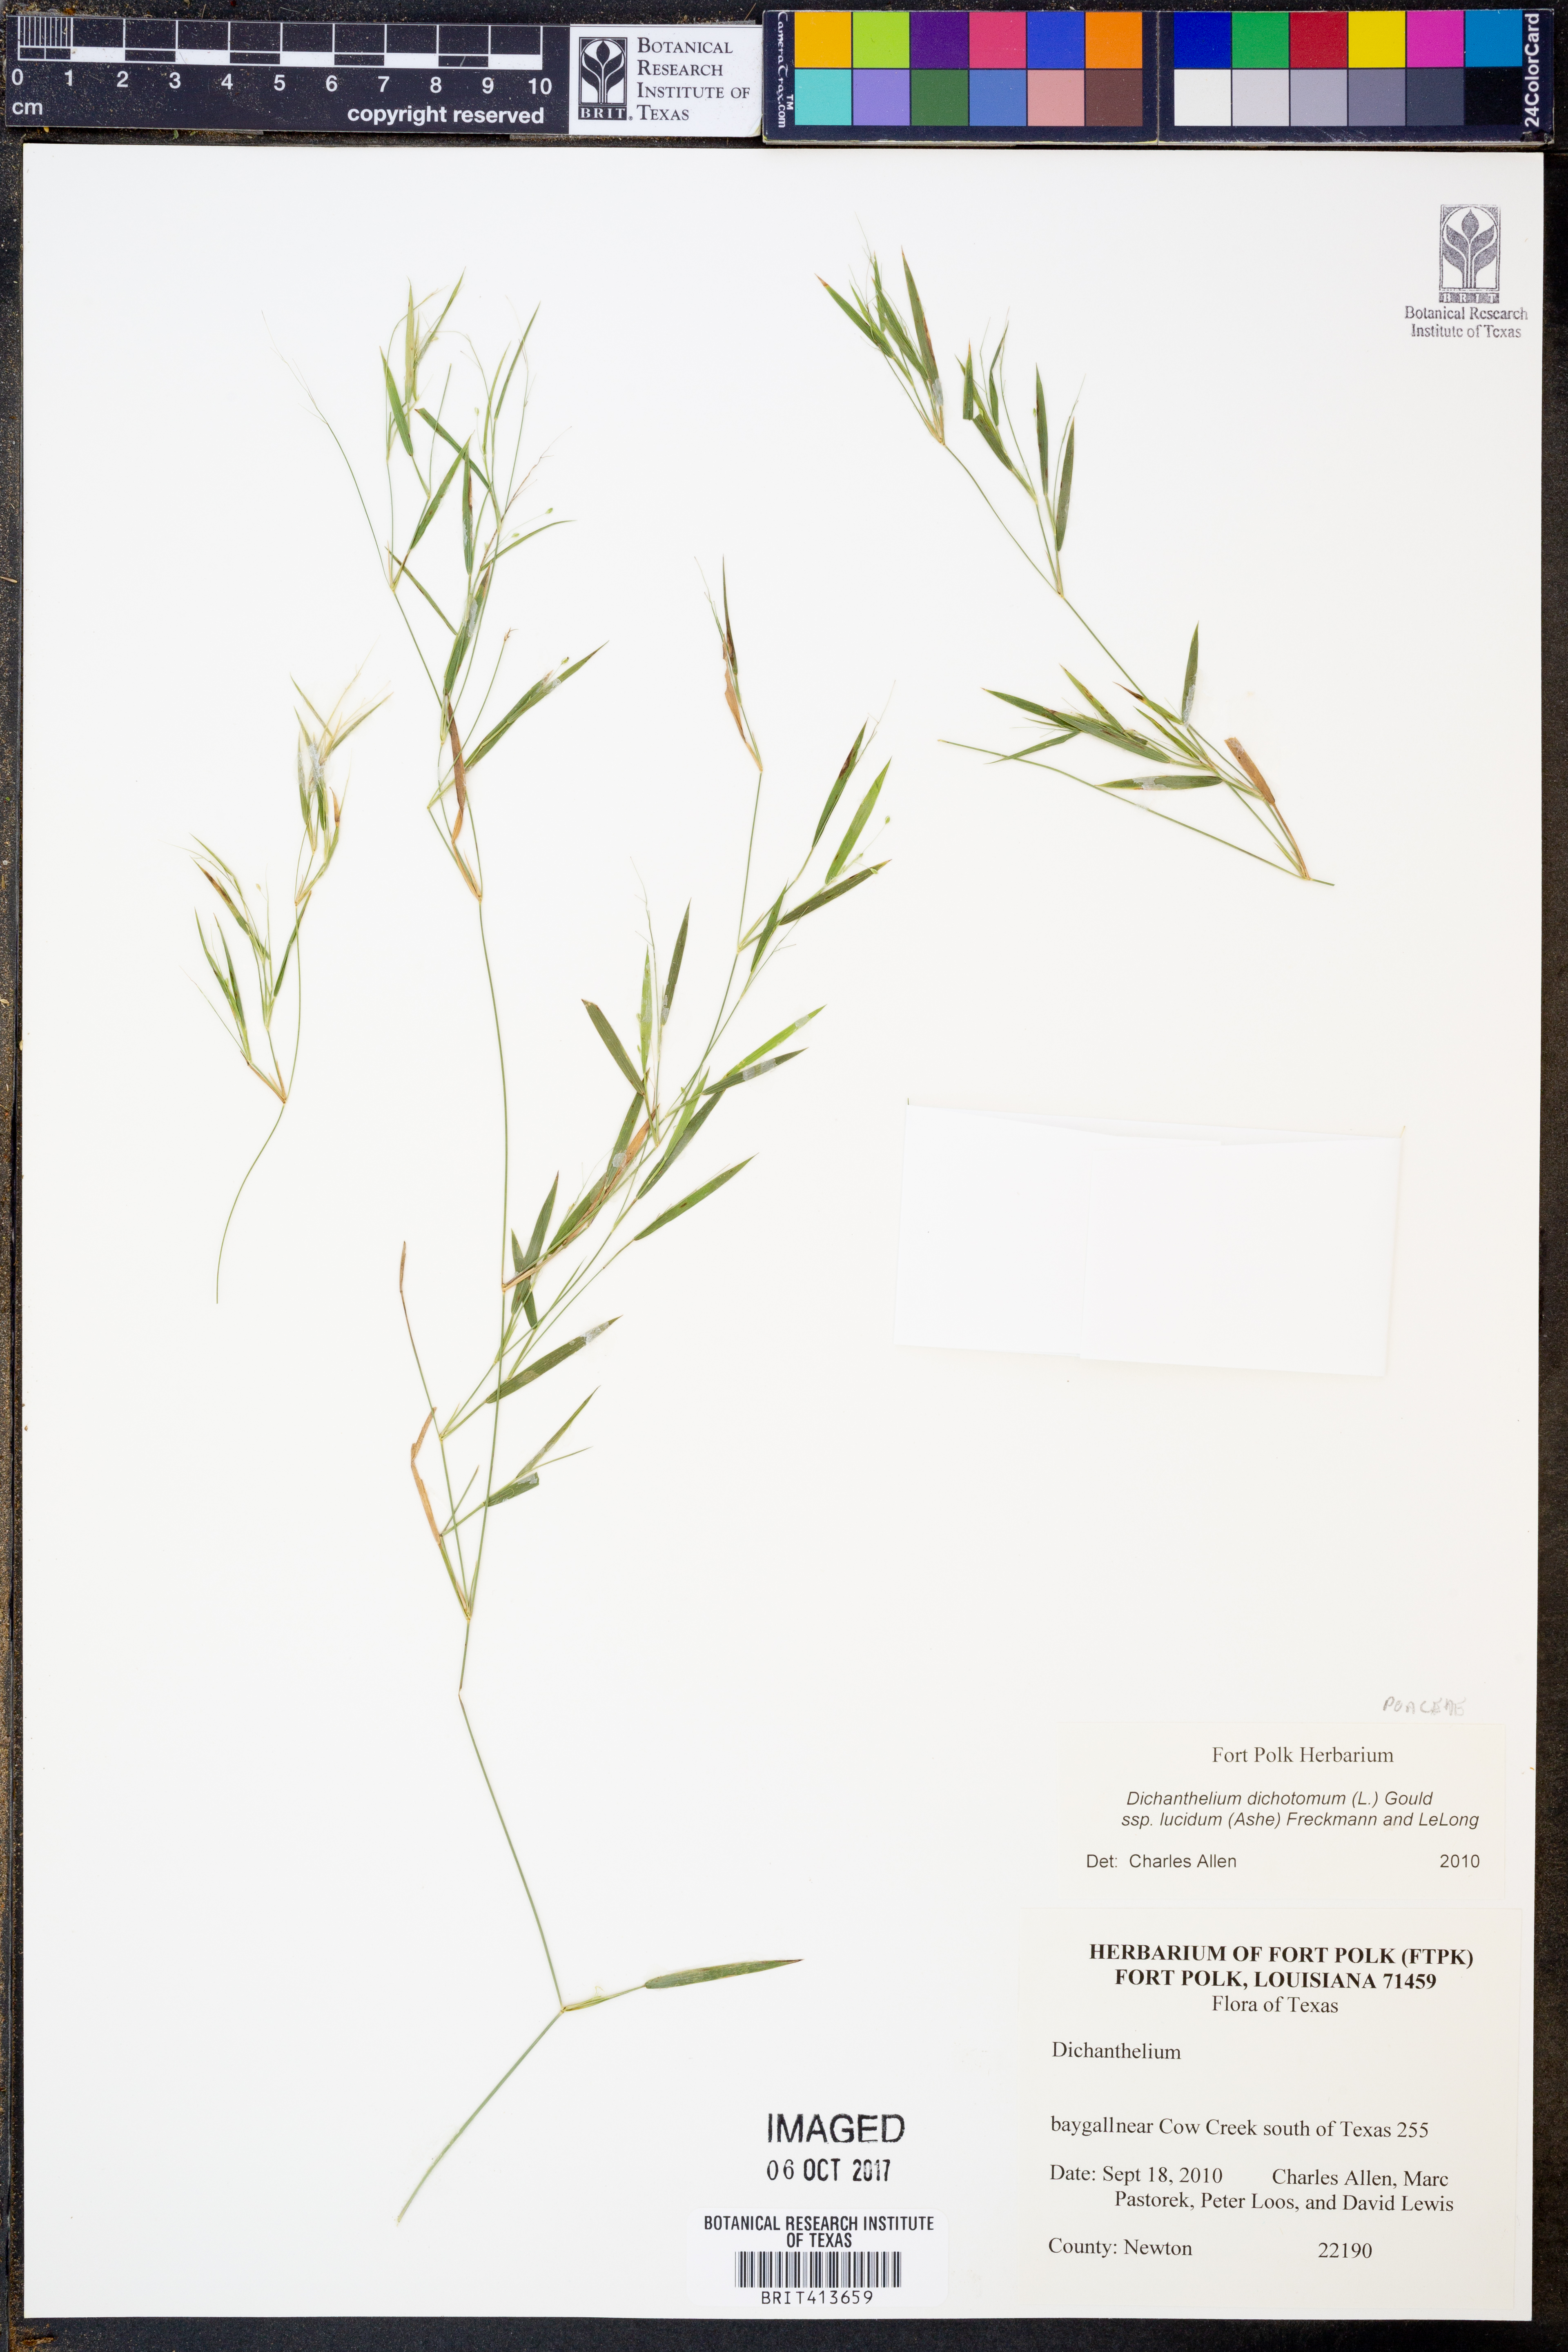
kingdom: Plantae
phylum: Tracheophyta
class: Liliopsida
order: Poales
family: Poaceae
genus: Dichanthelium
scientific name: Dichanthelium lucidum
